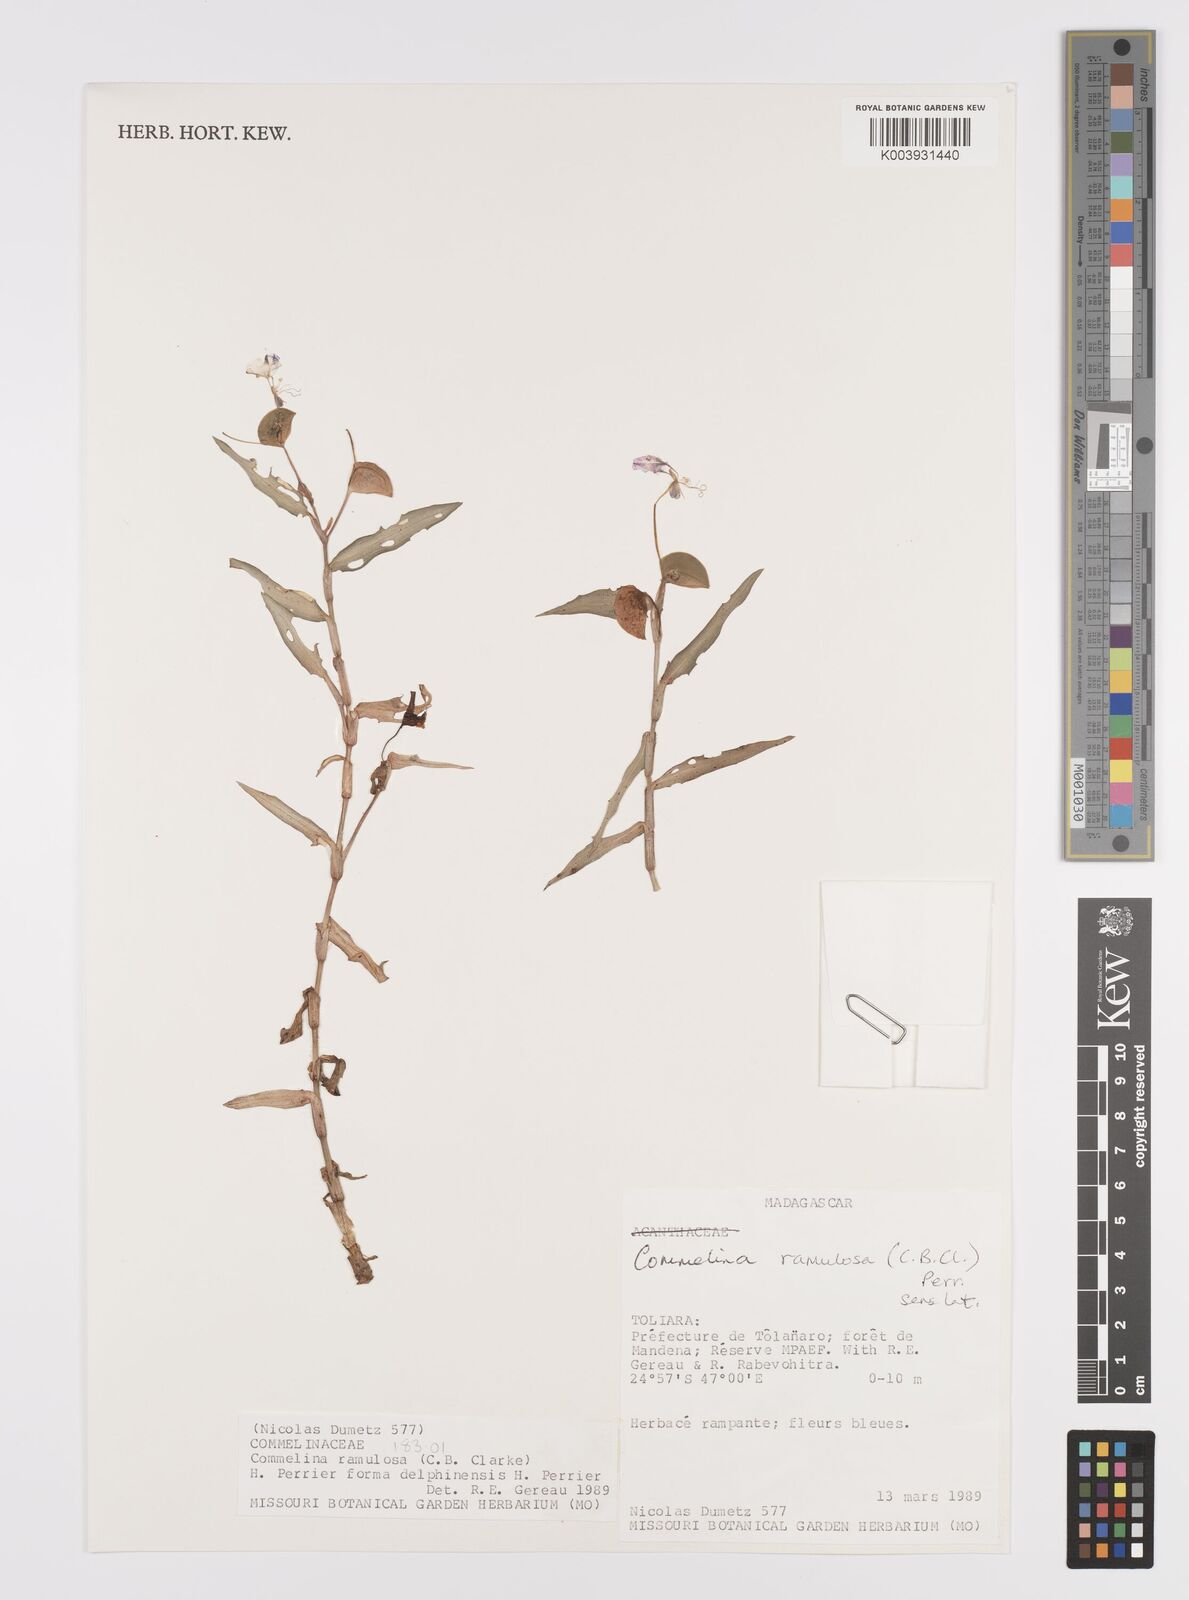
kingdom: Plantae
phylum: Tracheophyta
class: Liliopsida
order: Commelinales
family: Commelinaceae
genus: Commelina
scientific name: Commelina ramulosa
